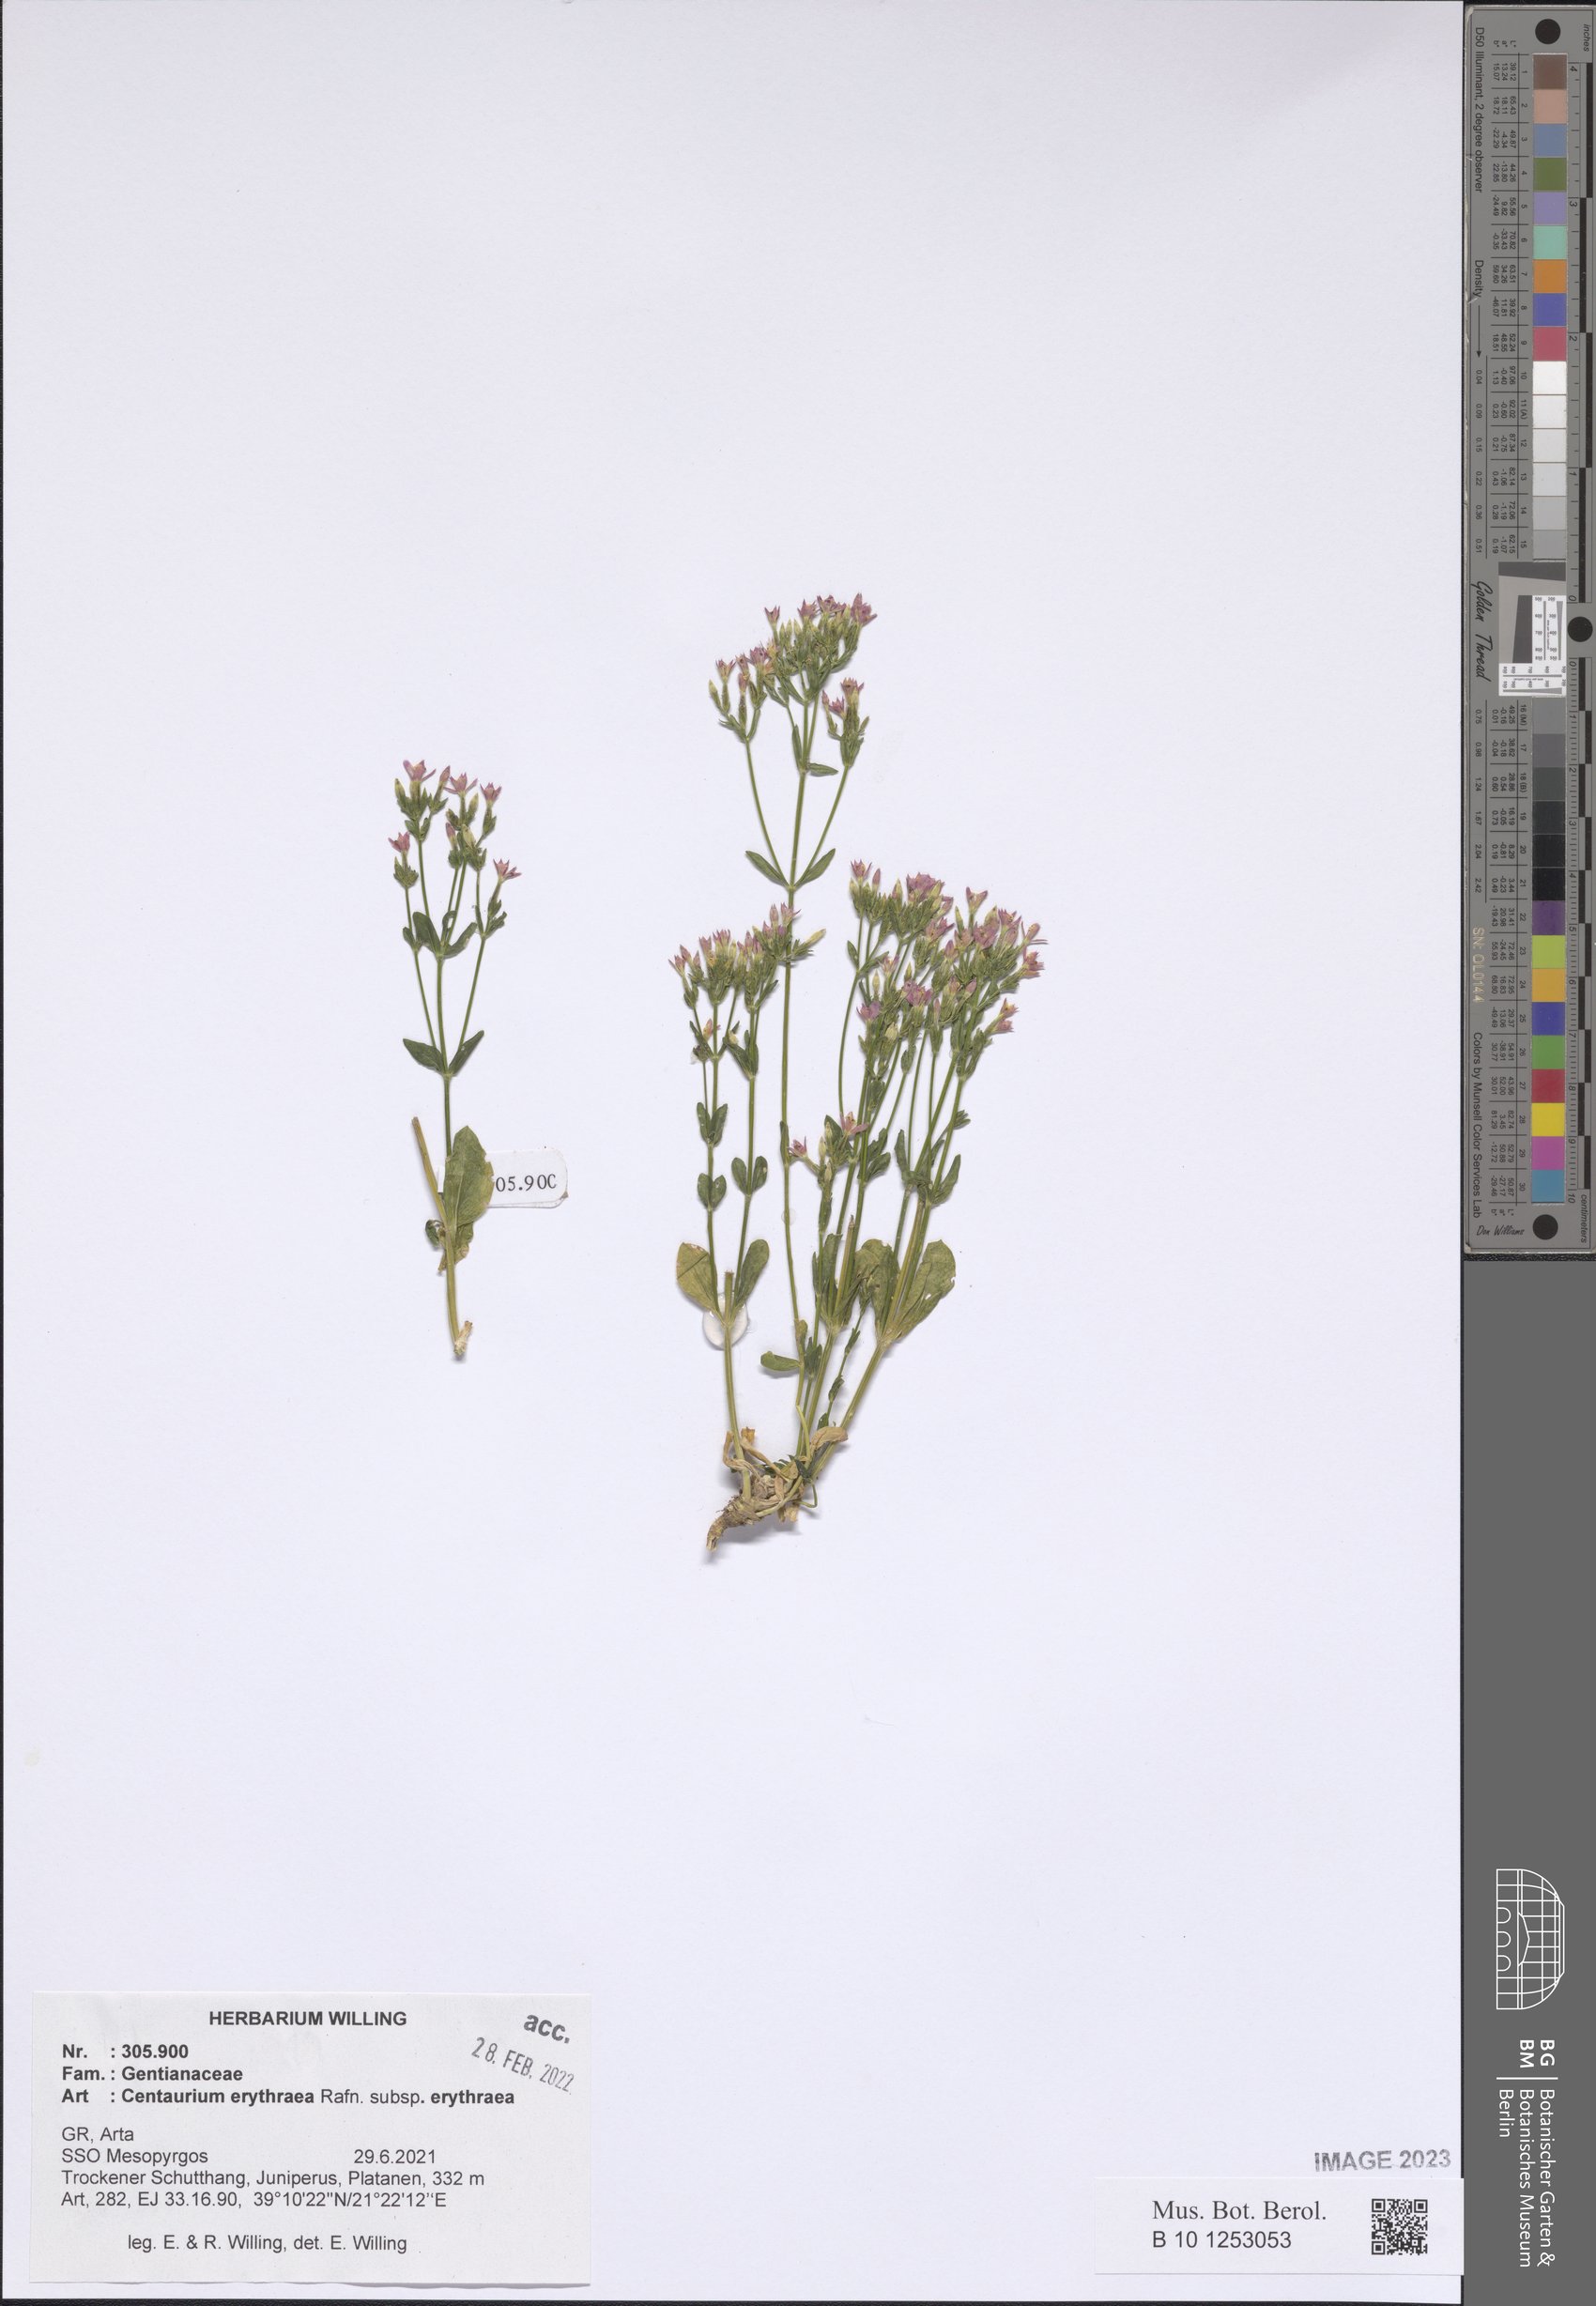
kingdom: Plantae
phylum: Tracheophyta
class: Magnoliopsida
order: Gentianales
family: Gentianaceae
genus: Centaurium
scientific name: Centaurium erythraea
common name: Common centaury
